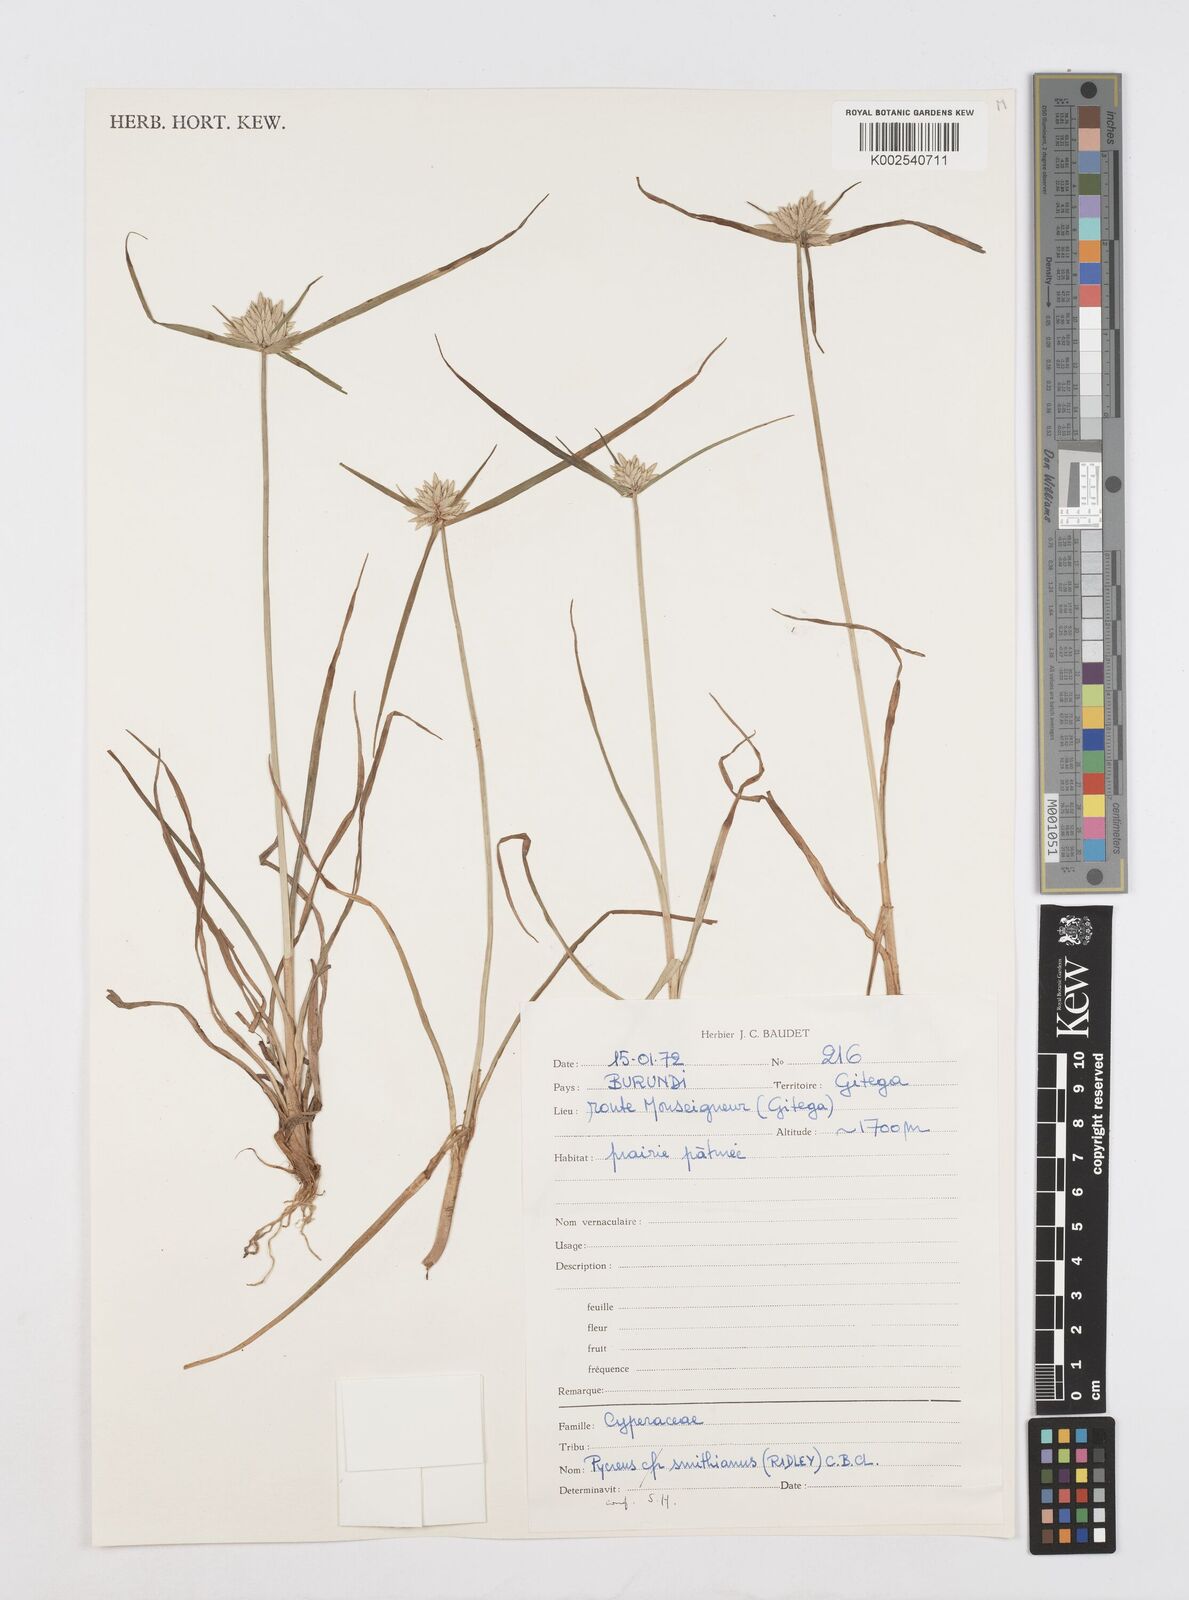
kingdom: Plantae
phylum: Tracheophyta
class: Liliopsida
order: Poales
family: Cyperaceae
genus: Cyperus
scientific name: Cyperus smithianus
